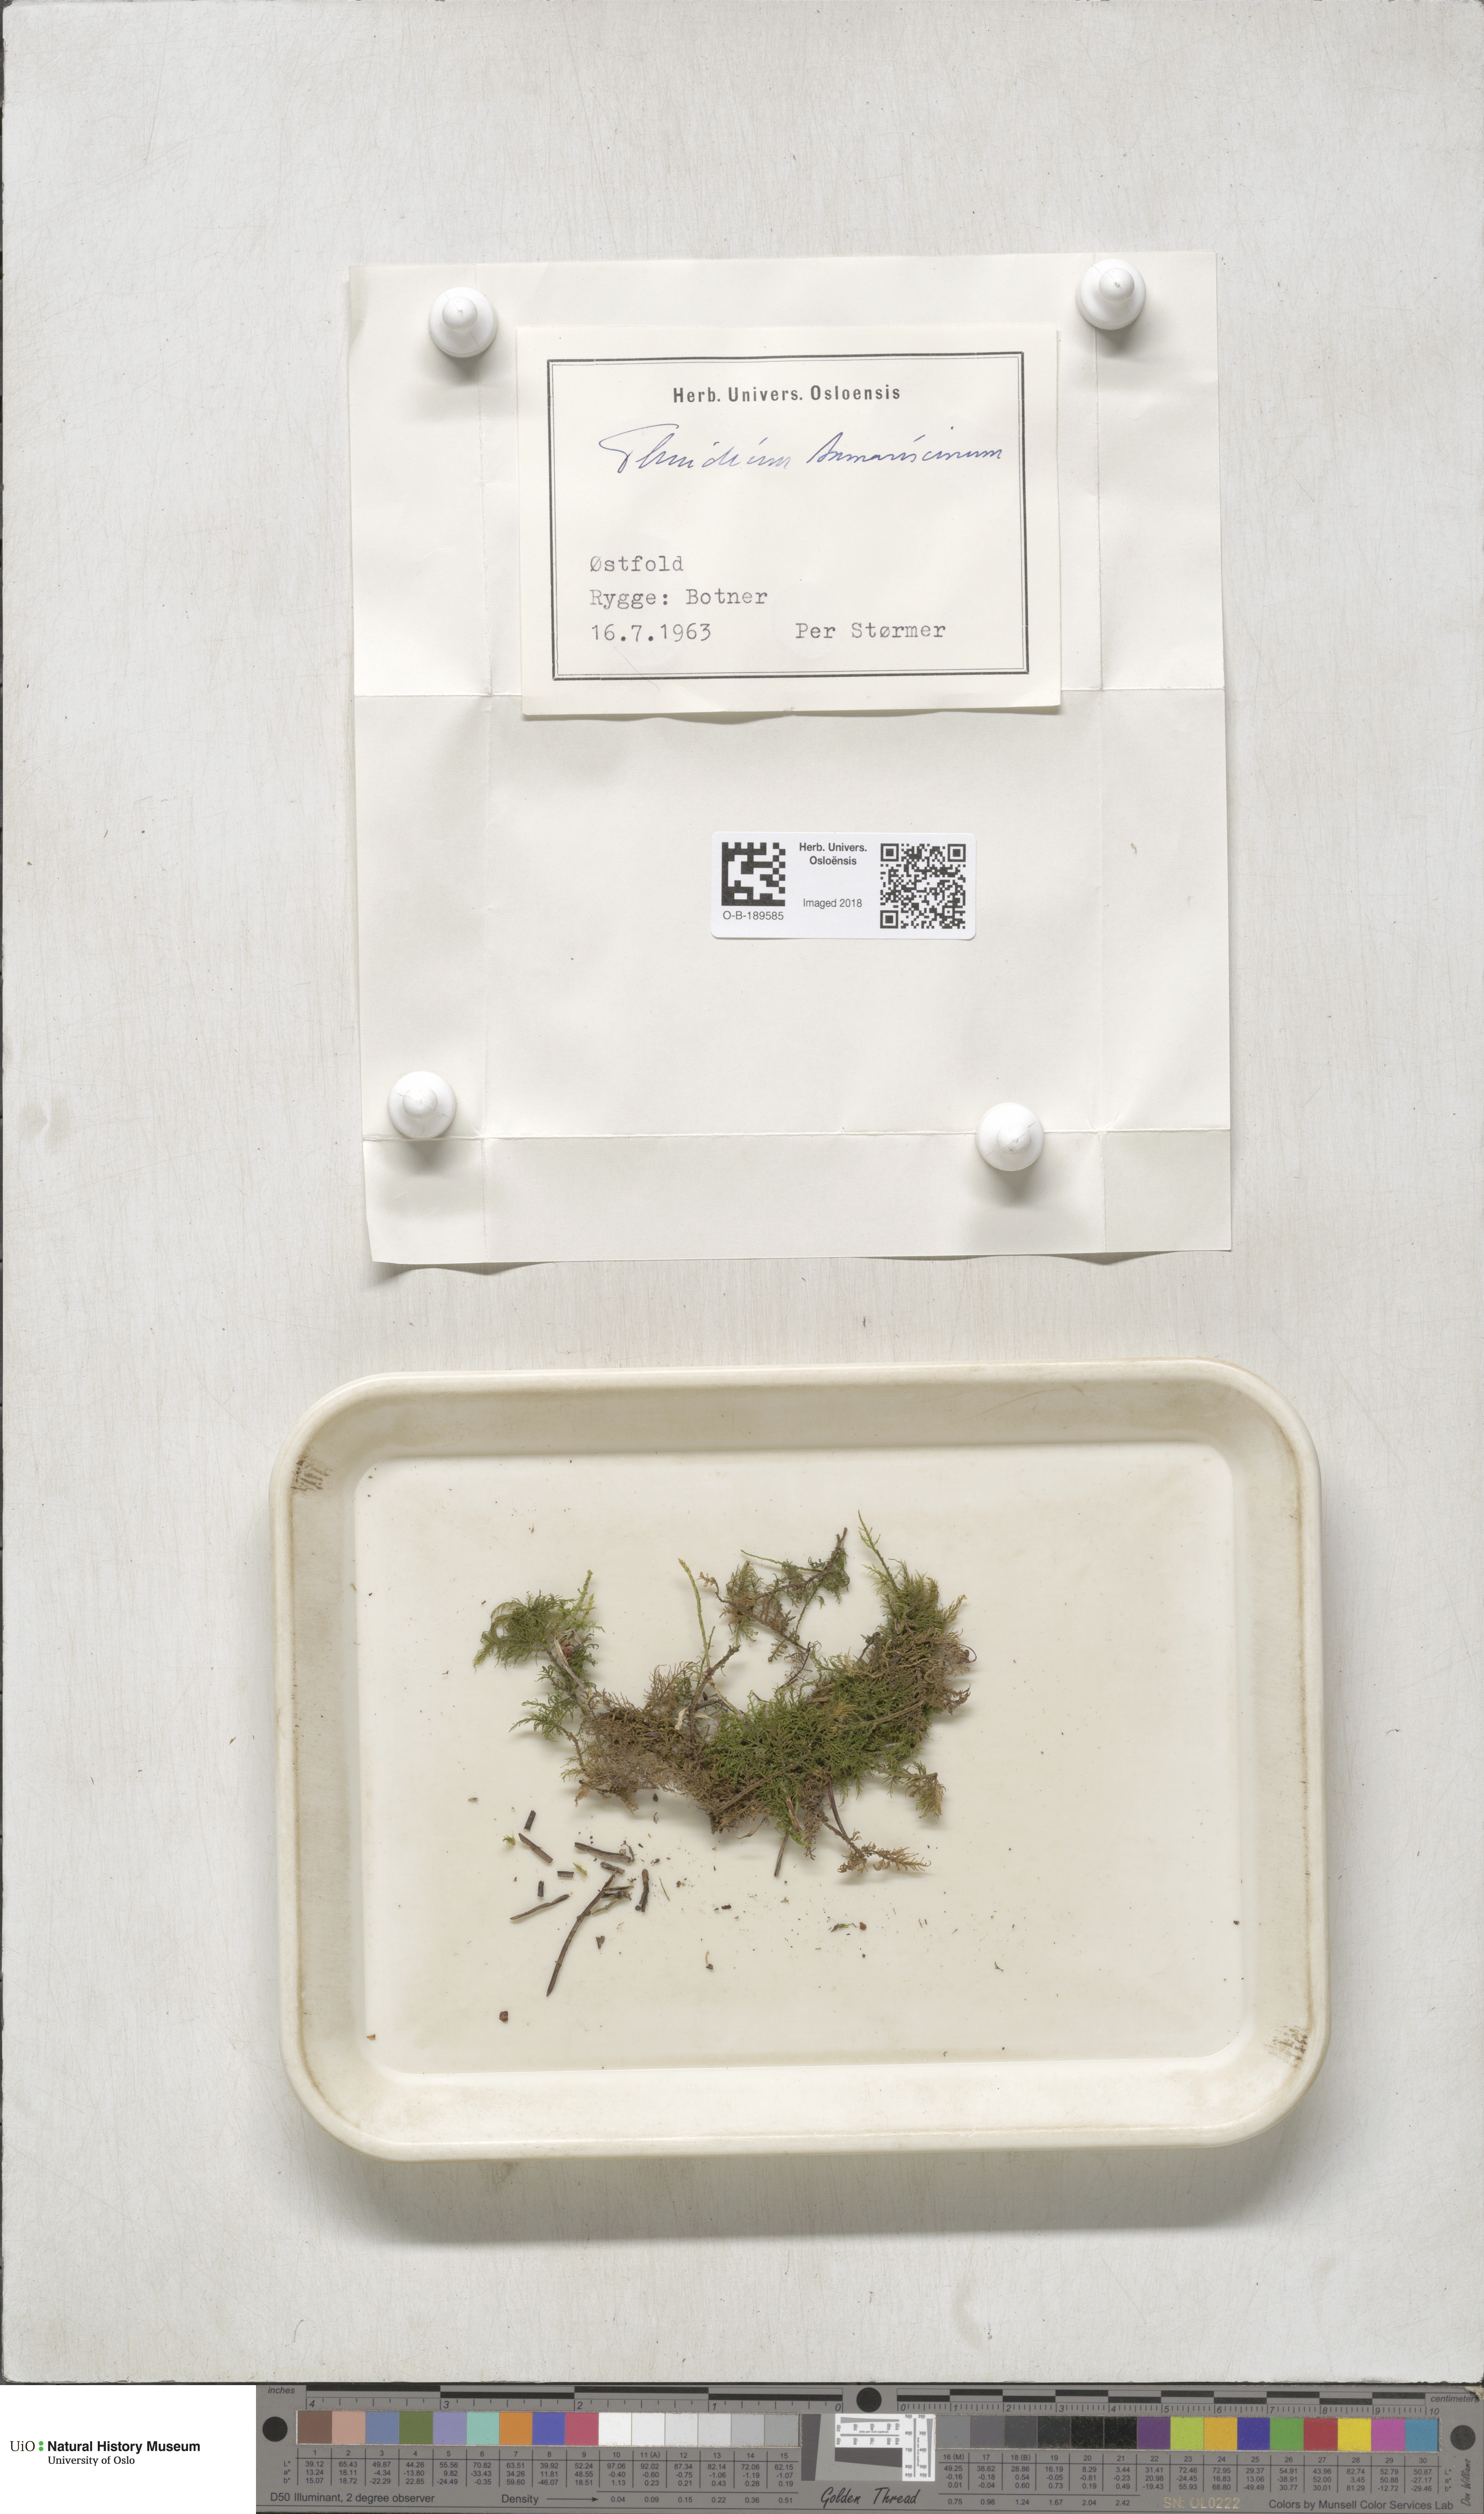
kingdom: Plantae
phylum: Bryophyta
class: Bryopsida
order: Hypnales
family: Thuidiaceae
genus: Thuidium
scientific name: Thuidium tamariscinum
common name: Common tamarisk-moss
